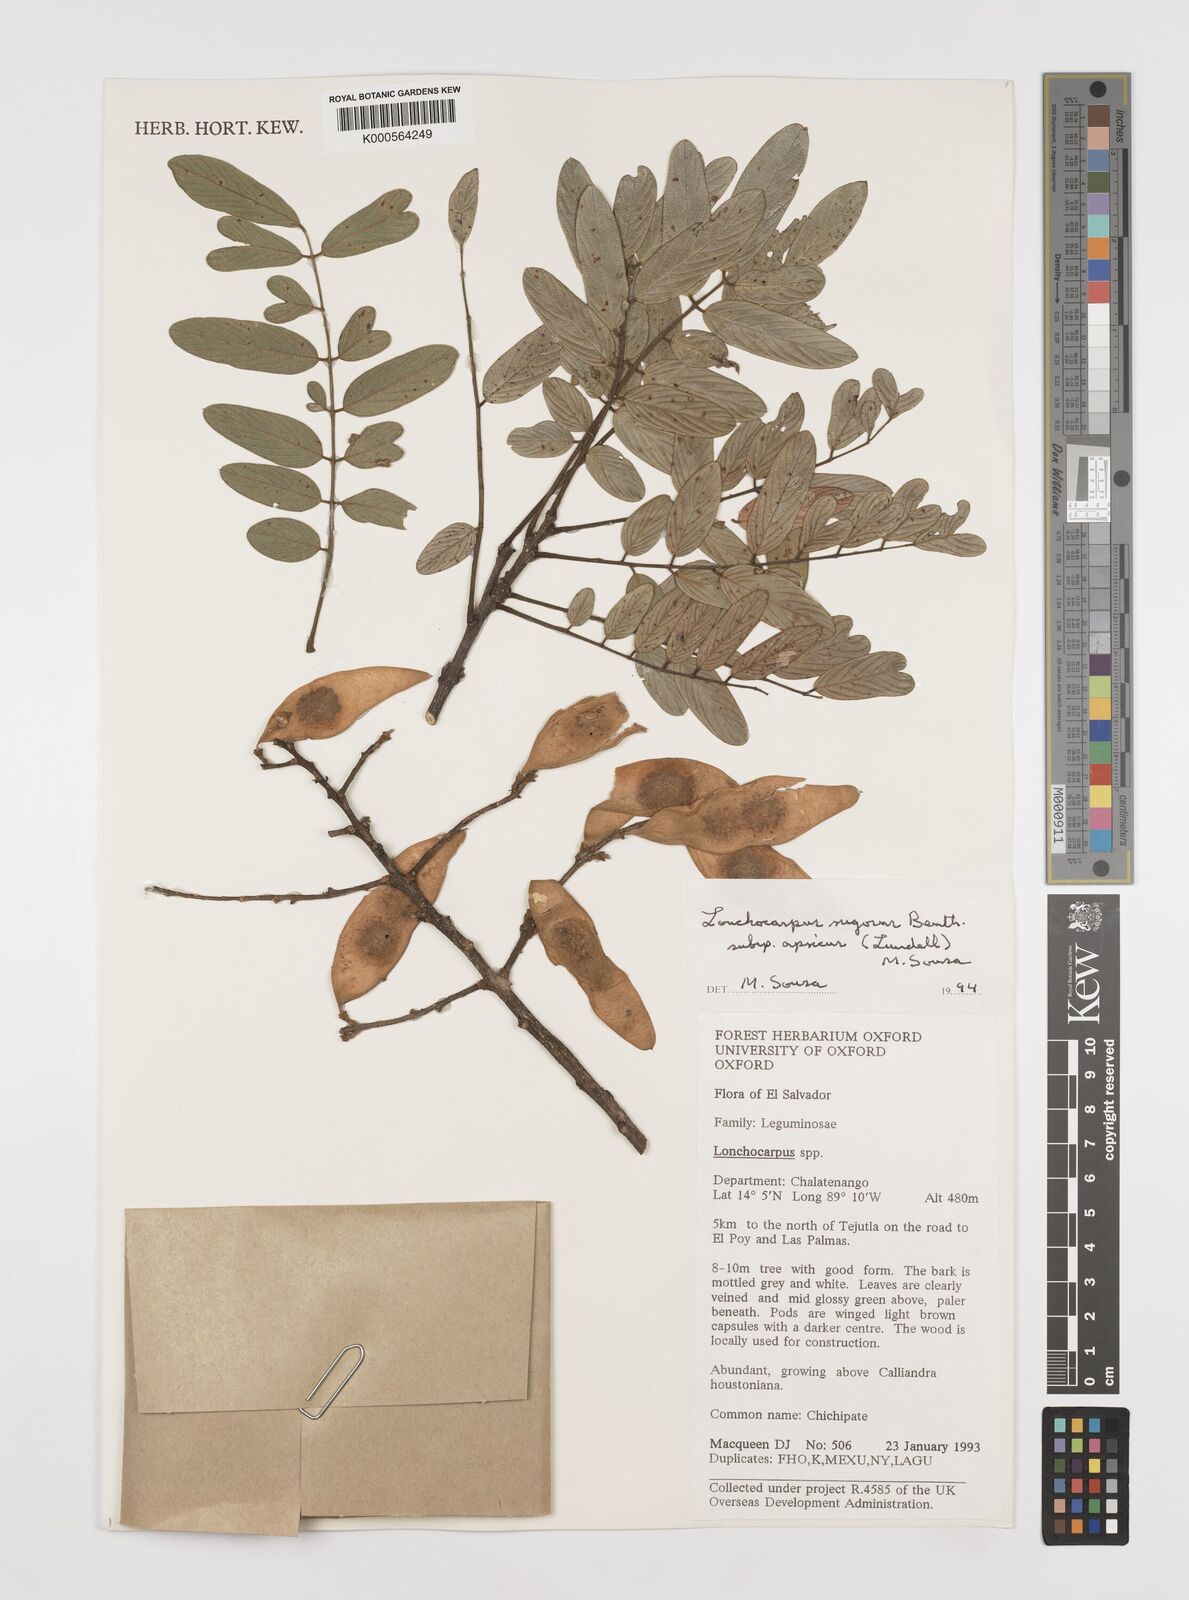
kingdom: Plantae
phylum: Tracheophyta
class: Magnoliopsida
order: Fabales
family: Fabaceae
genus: Lonchocarpus
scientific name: Lonchocarpus rugosus
